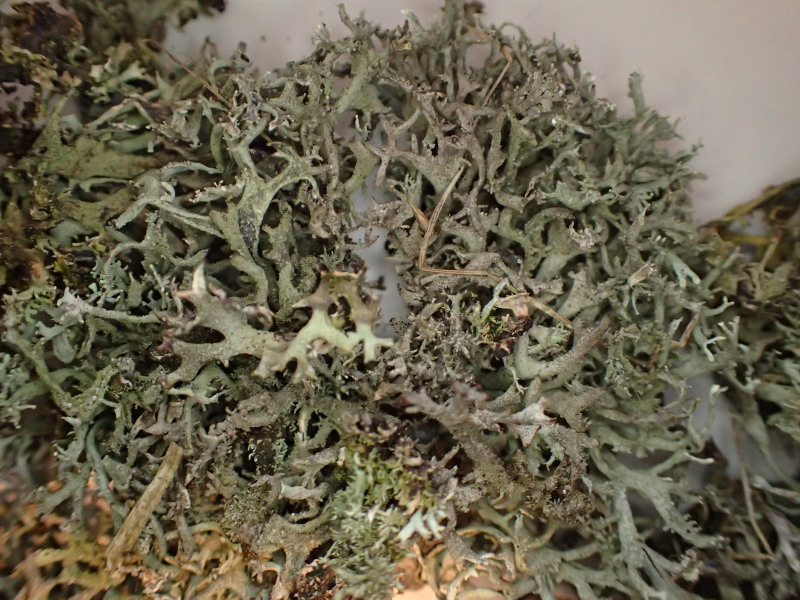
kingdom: Fungi
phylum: Ascomycota
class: Lecanoromycetes
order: Lecanorales
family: Parmeliaceae
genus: Pseudevernia
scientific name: Pseudevernia furfuracea
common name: grå fyrrelav
